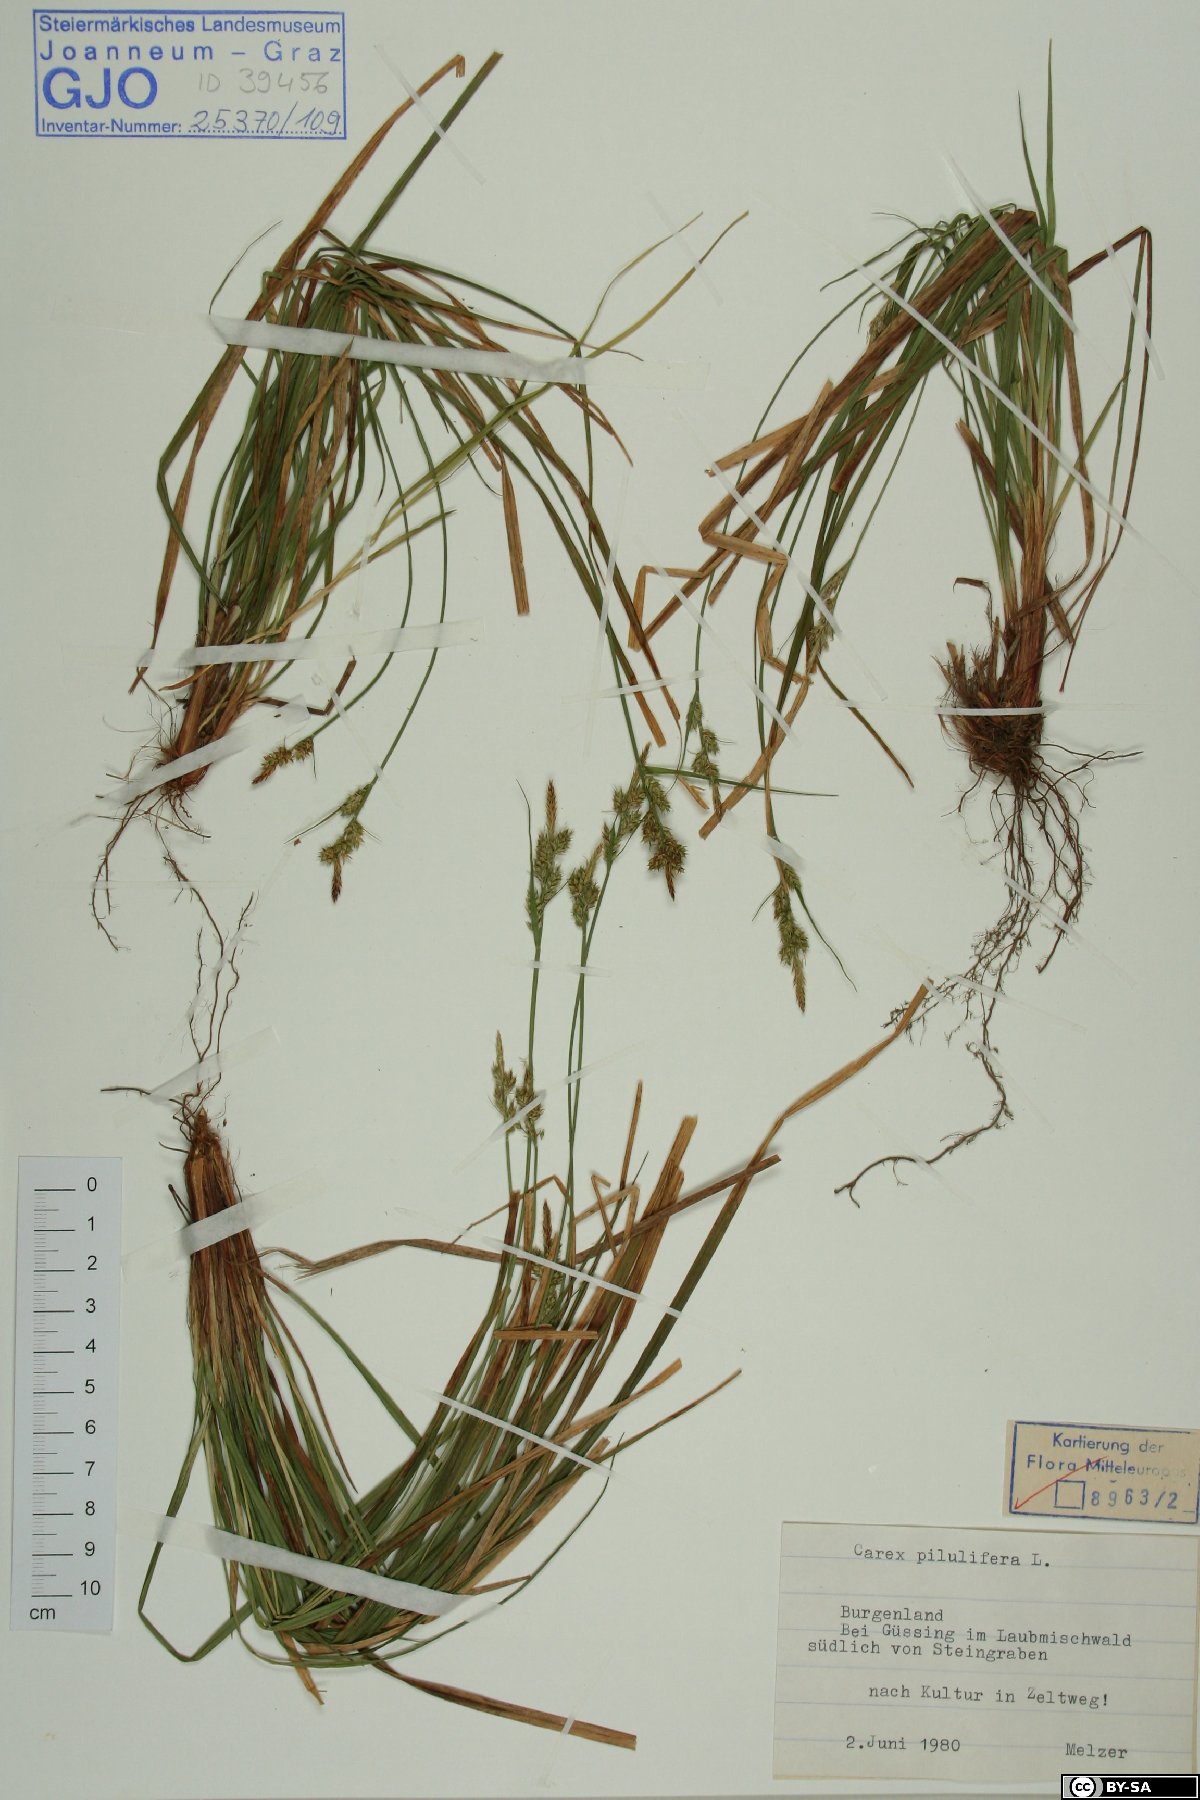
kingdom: Plantae
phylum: Tracheophyta
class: Liliopsida
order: Poales
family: Cyperaceae
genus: Carex
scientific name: Carex pilulifera
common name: Pill sedge
